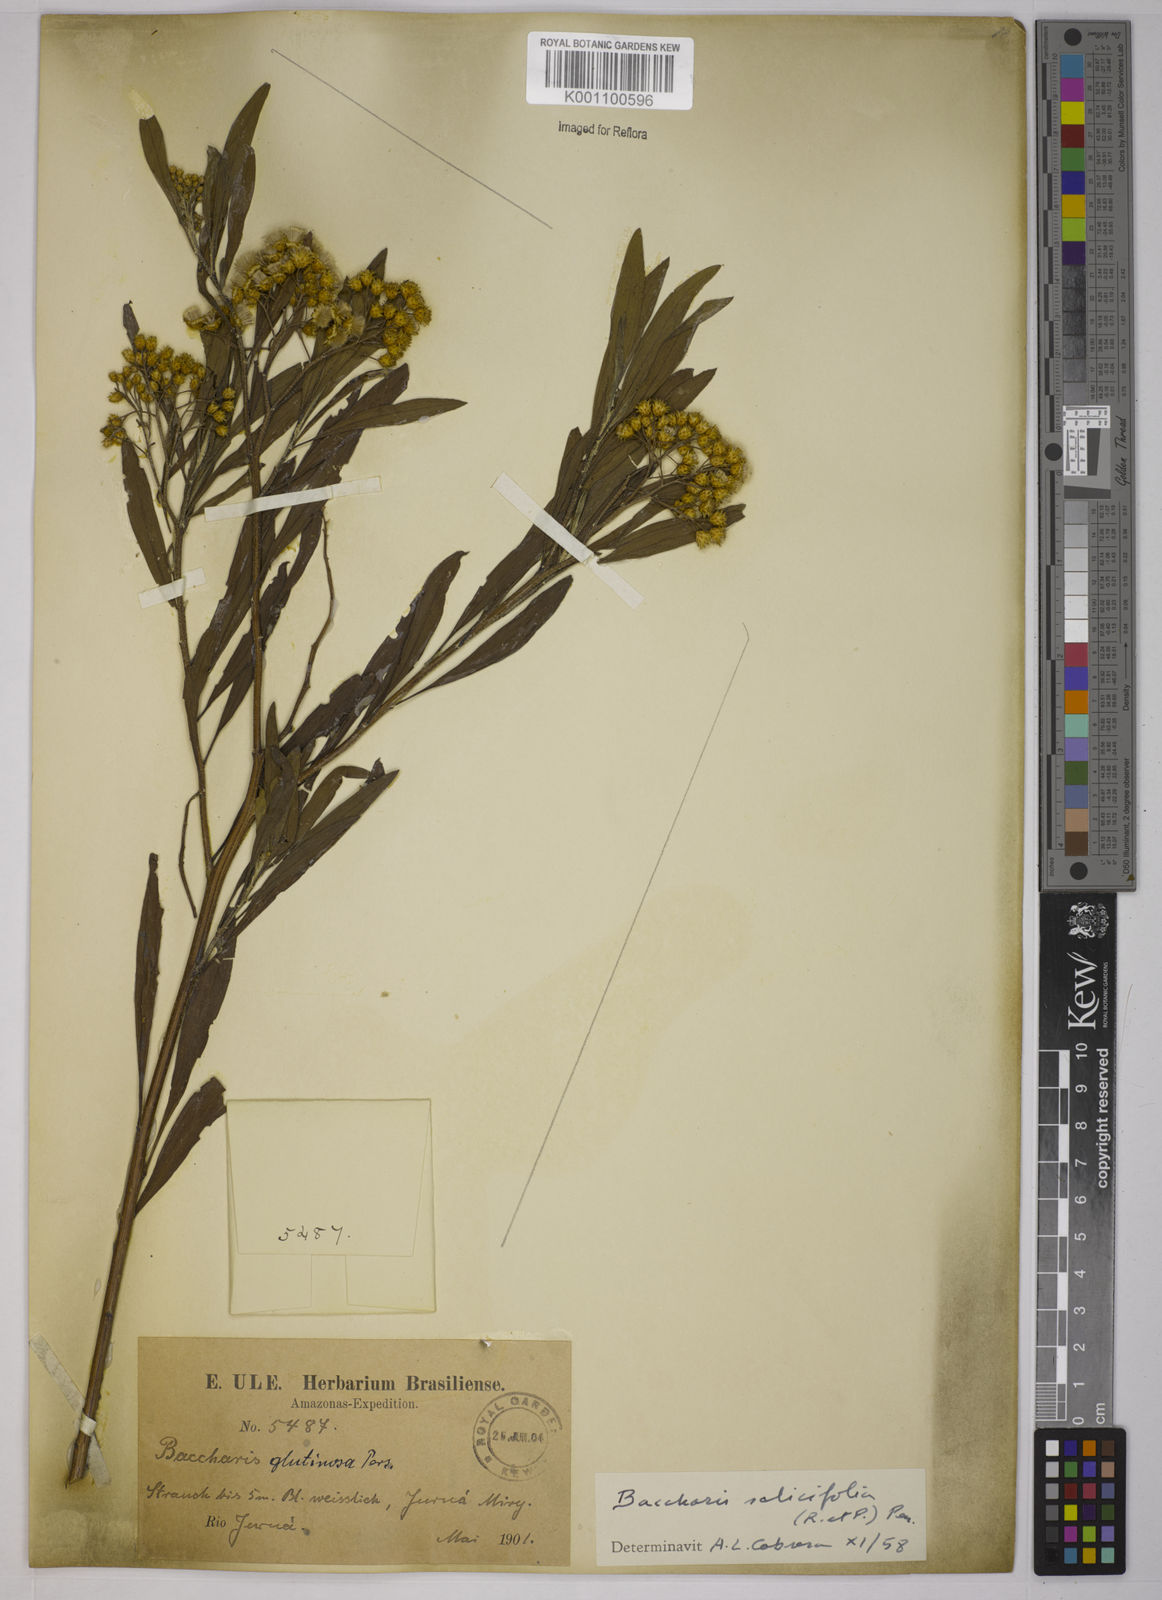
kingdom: Plantae
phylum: Tracheophyta
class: Magnoliopsida
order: Asterales
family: Asteraceae
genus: Baccharis
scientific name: Baccharis glutinosa
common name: Saltmarsh baccharis
